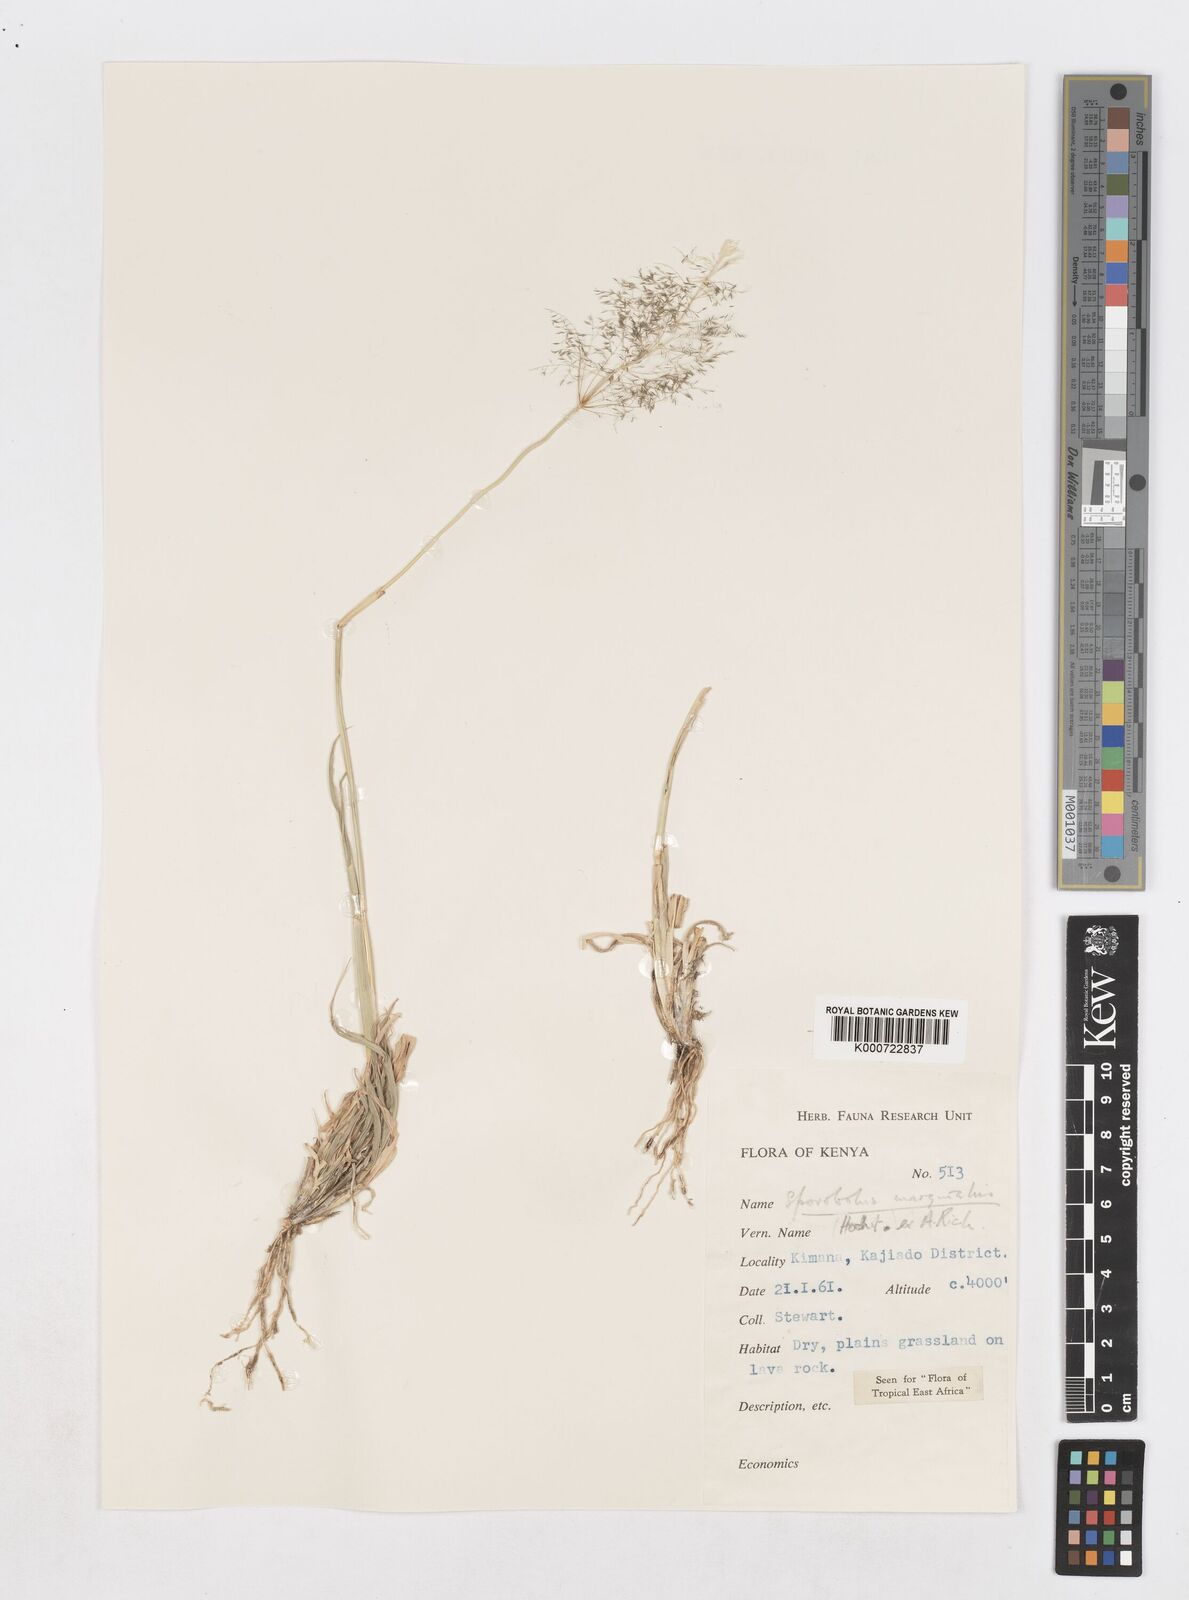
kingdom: Plantae
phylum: Tracheophyta
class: Liliopsida
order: Poales
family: Poaceae
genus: Sporobolus
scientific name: Sporobolus ioclados
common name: Pan dropseed
